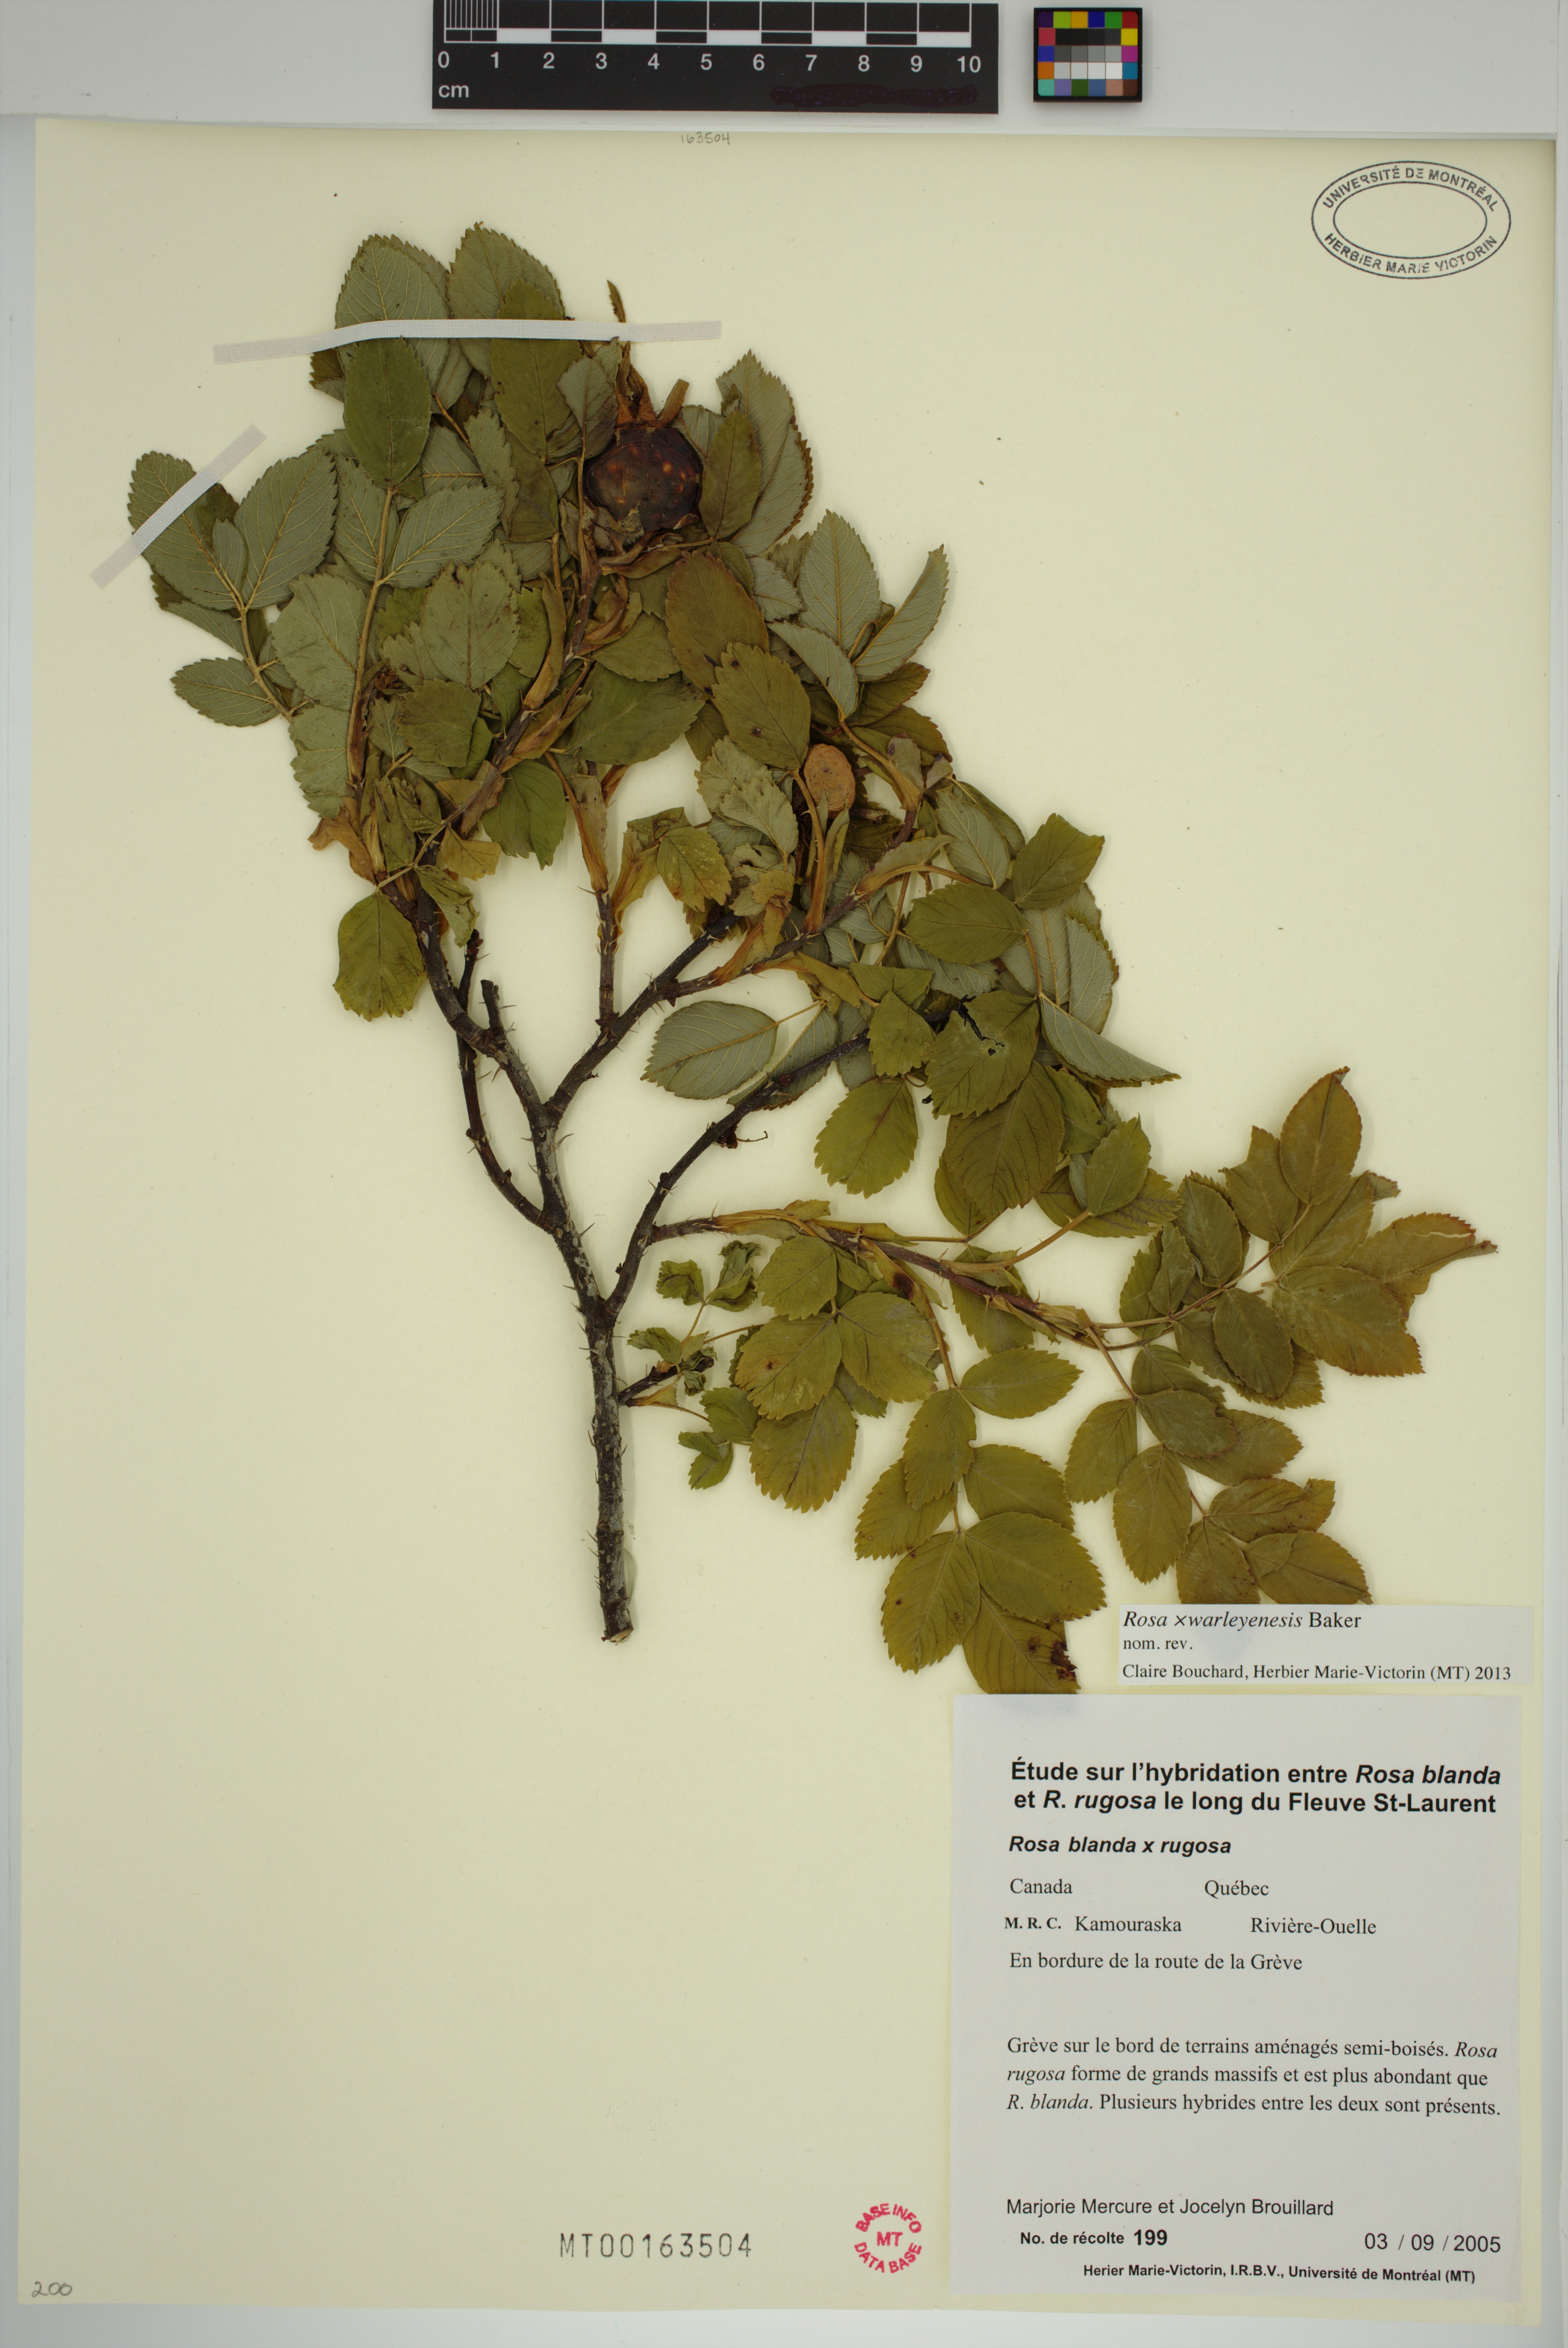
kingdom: Plantae
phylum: Tracheophyta
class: Magnoliopsida
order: Rosales
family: Rosaceae
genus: Rosa
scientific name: Rosa warleyensis
